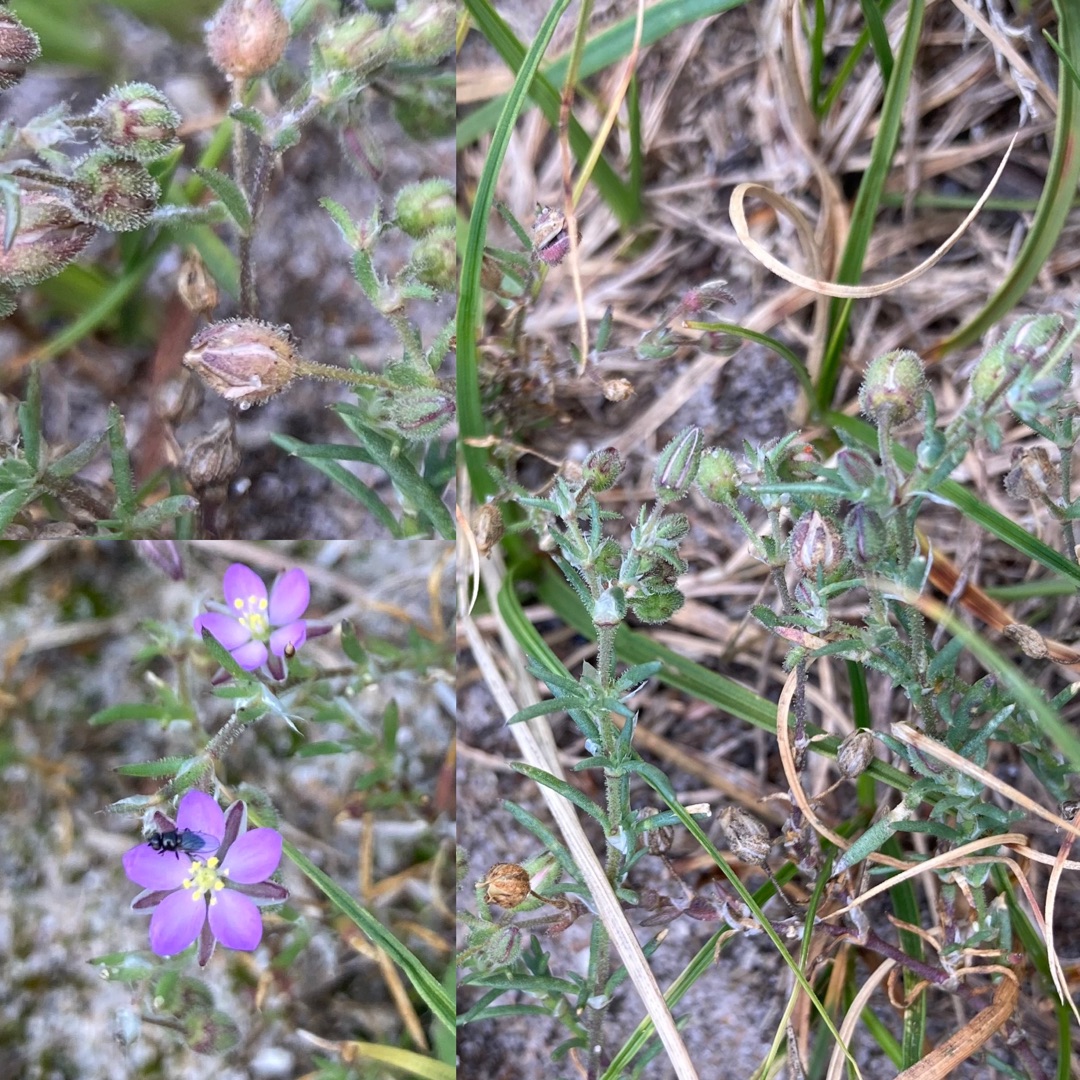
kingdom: Plantae
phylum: Tracheophyta
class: Magnoliopsida
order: Caryophyllales
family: Caryophyllaceae
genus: Spergularia
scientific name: Spergularia rubra
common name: Mark-hindeknæ
